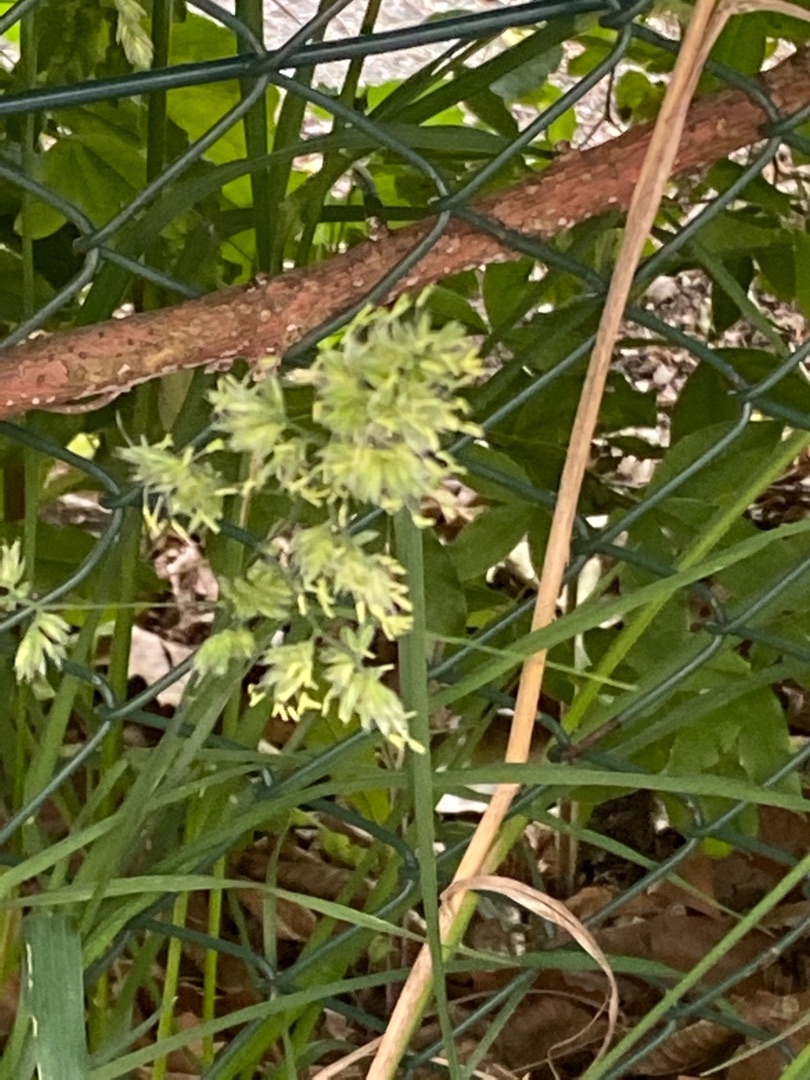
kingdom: Plantae
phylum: Tracheophyta
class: Liliopsida
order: Poales
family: Poaceae
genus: Dactylis
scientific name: Dactylis glomerata
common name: Almindelig hundegræs
